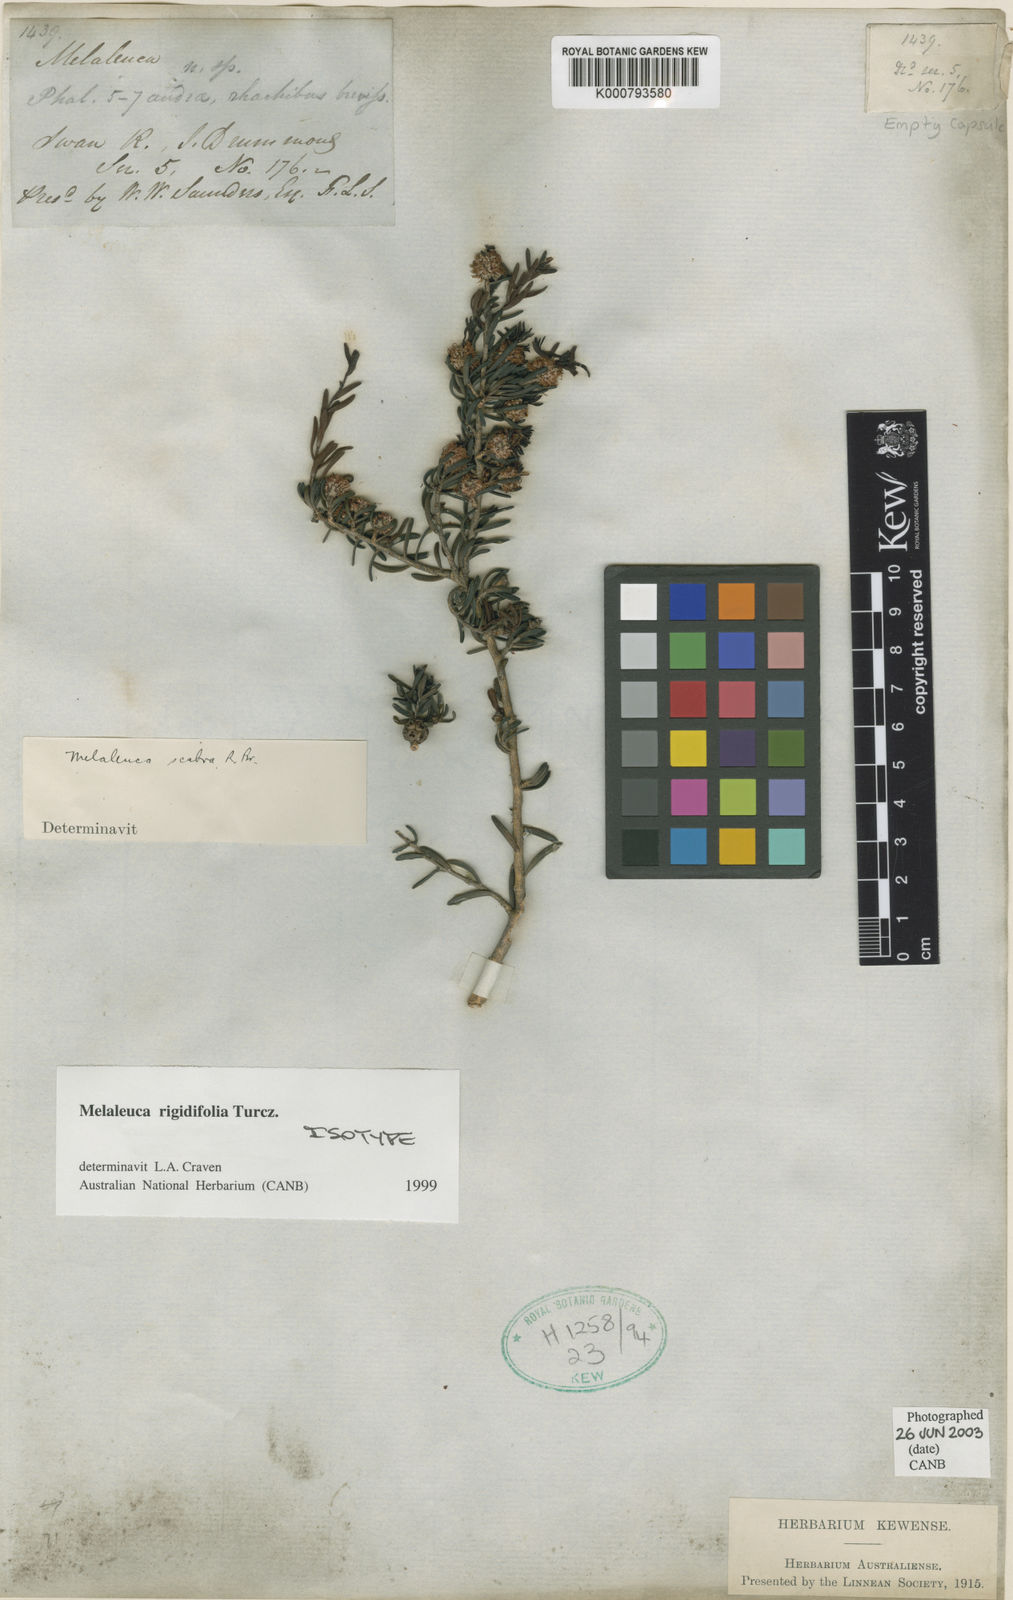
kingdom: Plantae
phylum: Tracheophyta
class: Magnoliopsida
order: Myrtales
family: Myrtaceae
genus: Melaleuca
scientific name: Melaleuca rigidifolia
